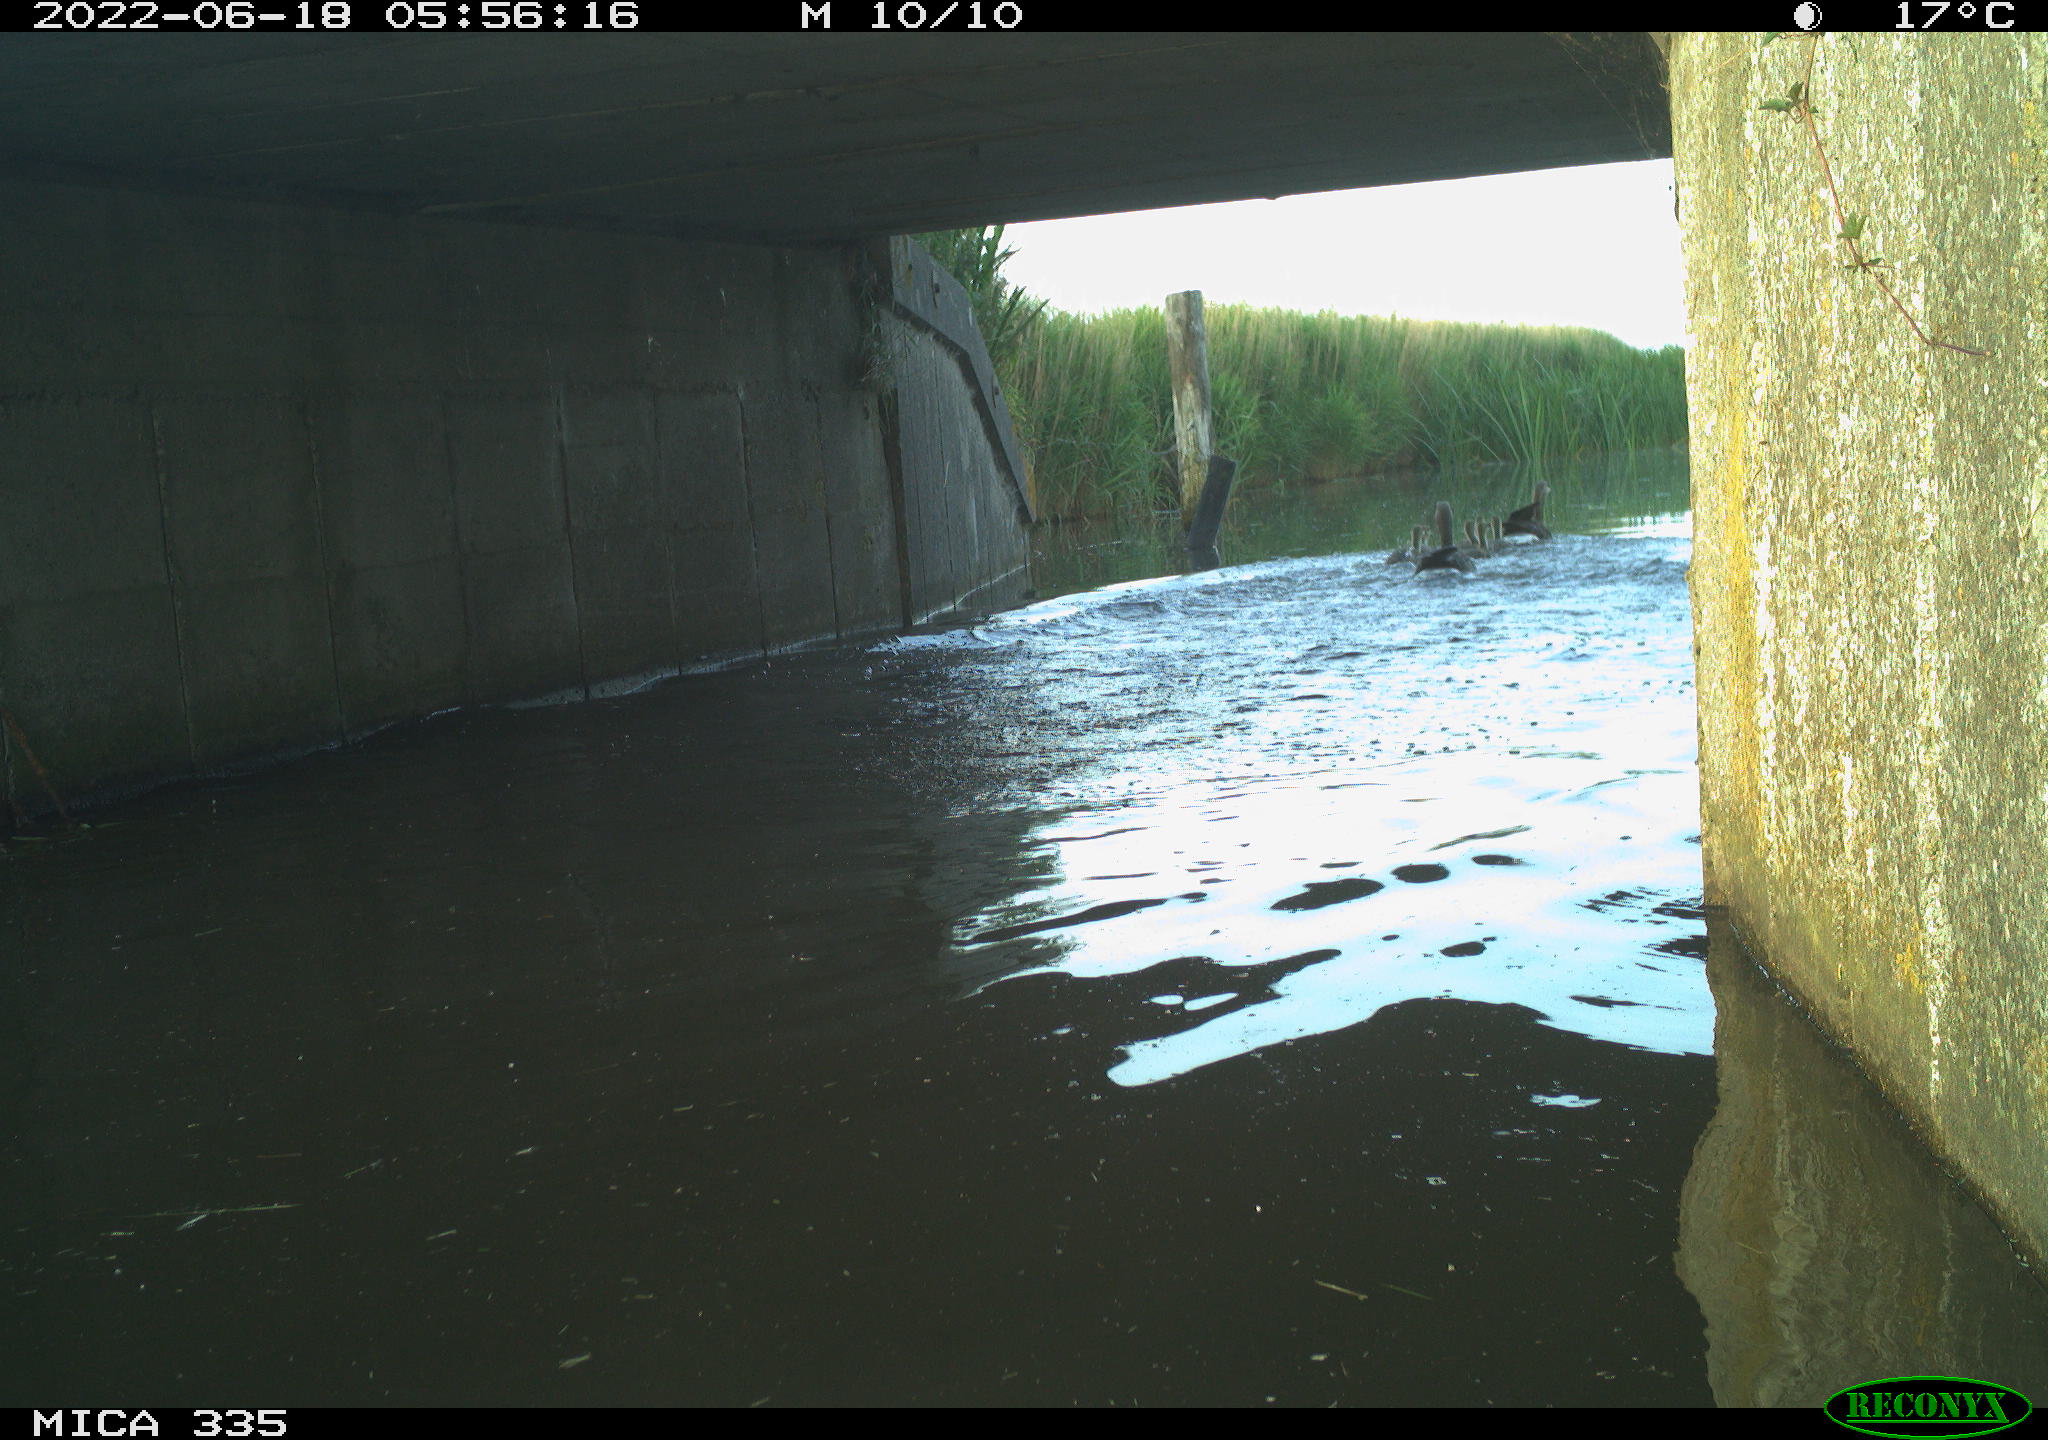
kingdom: Animalia
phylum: Chordata
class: Aves
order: Anseriformes
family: Anatidae
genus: Anser
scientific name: Anser anser
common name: Greylag goose
